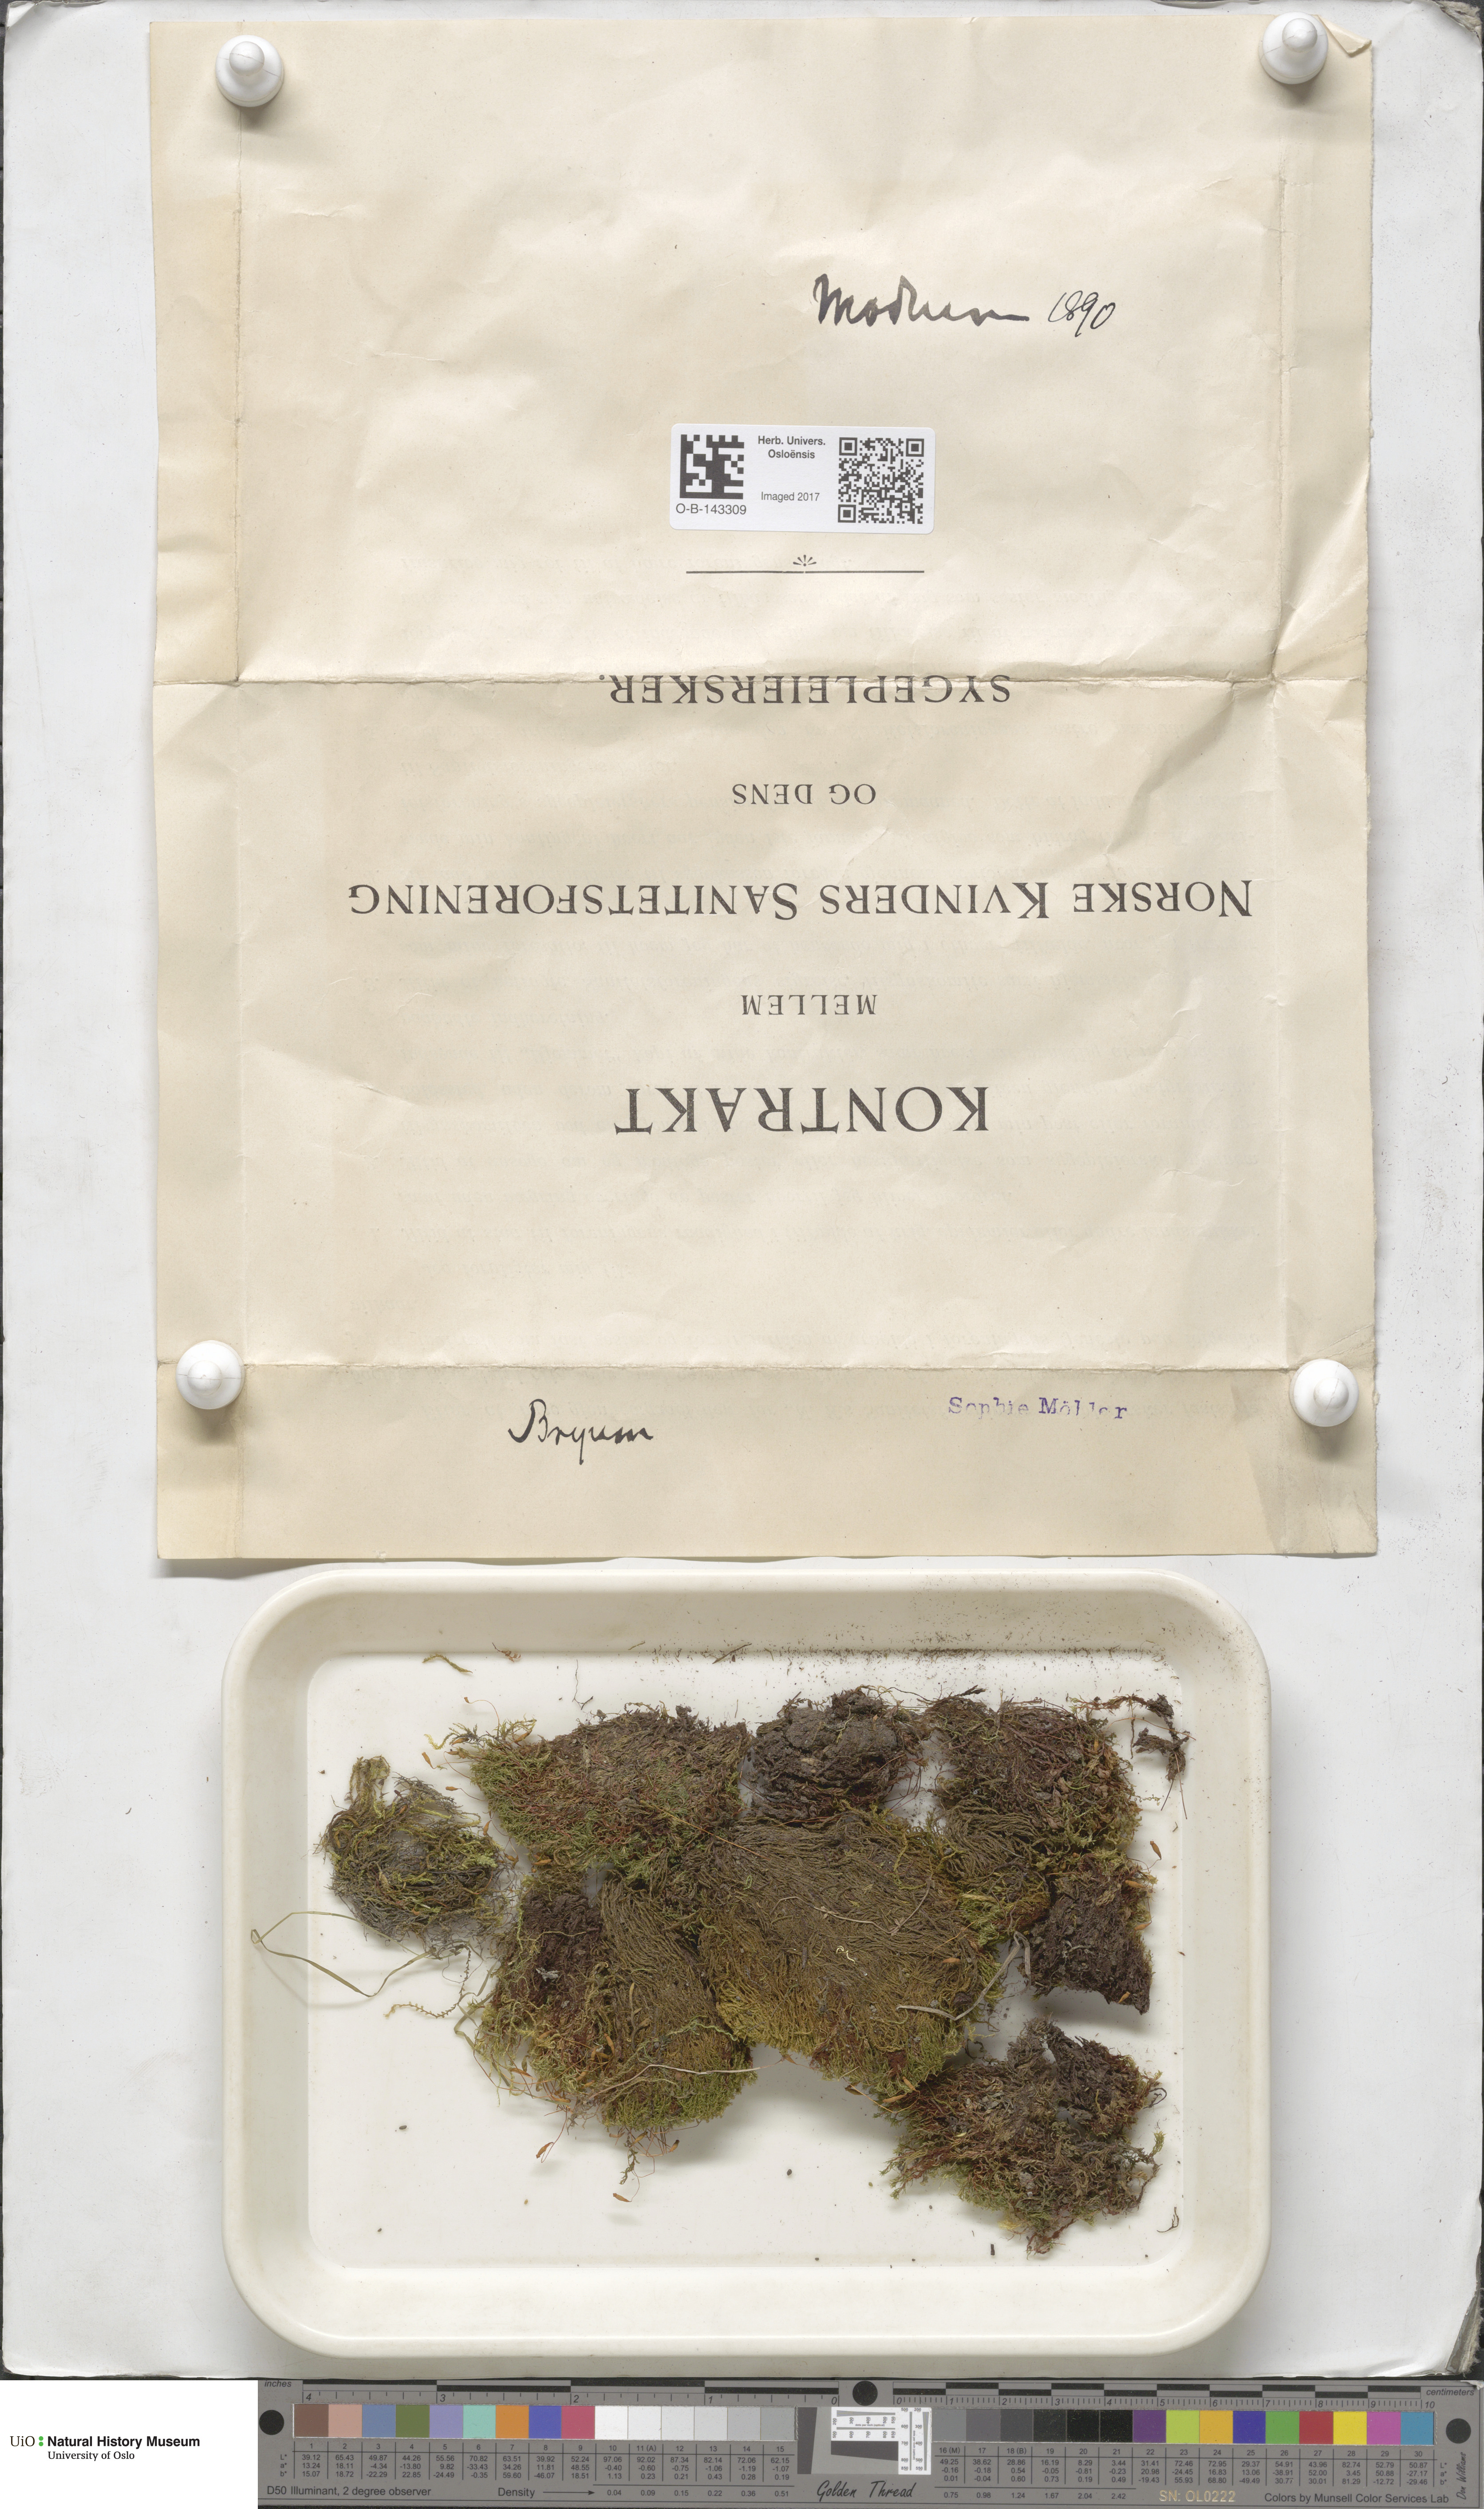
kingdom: Plantae
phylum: Bryophyta
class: Bryopsida
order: Bryales
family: Bryaceae
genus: Bryum
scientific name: Bryum
